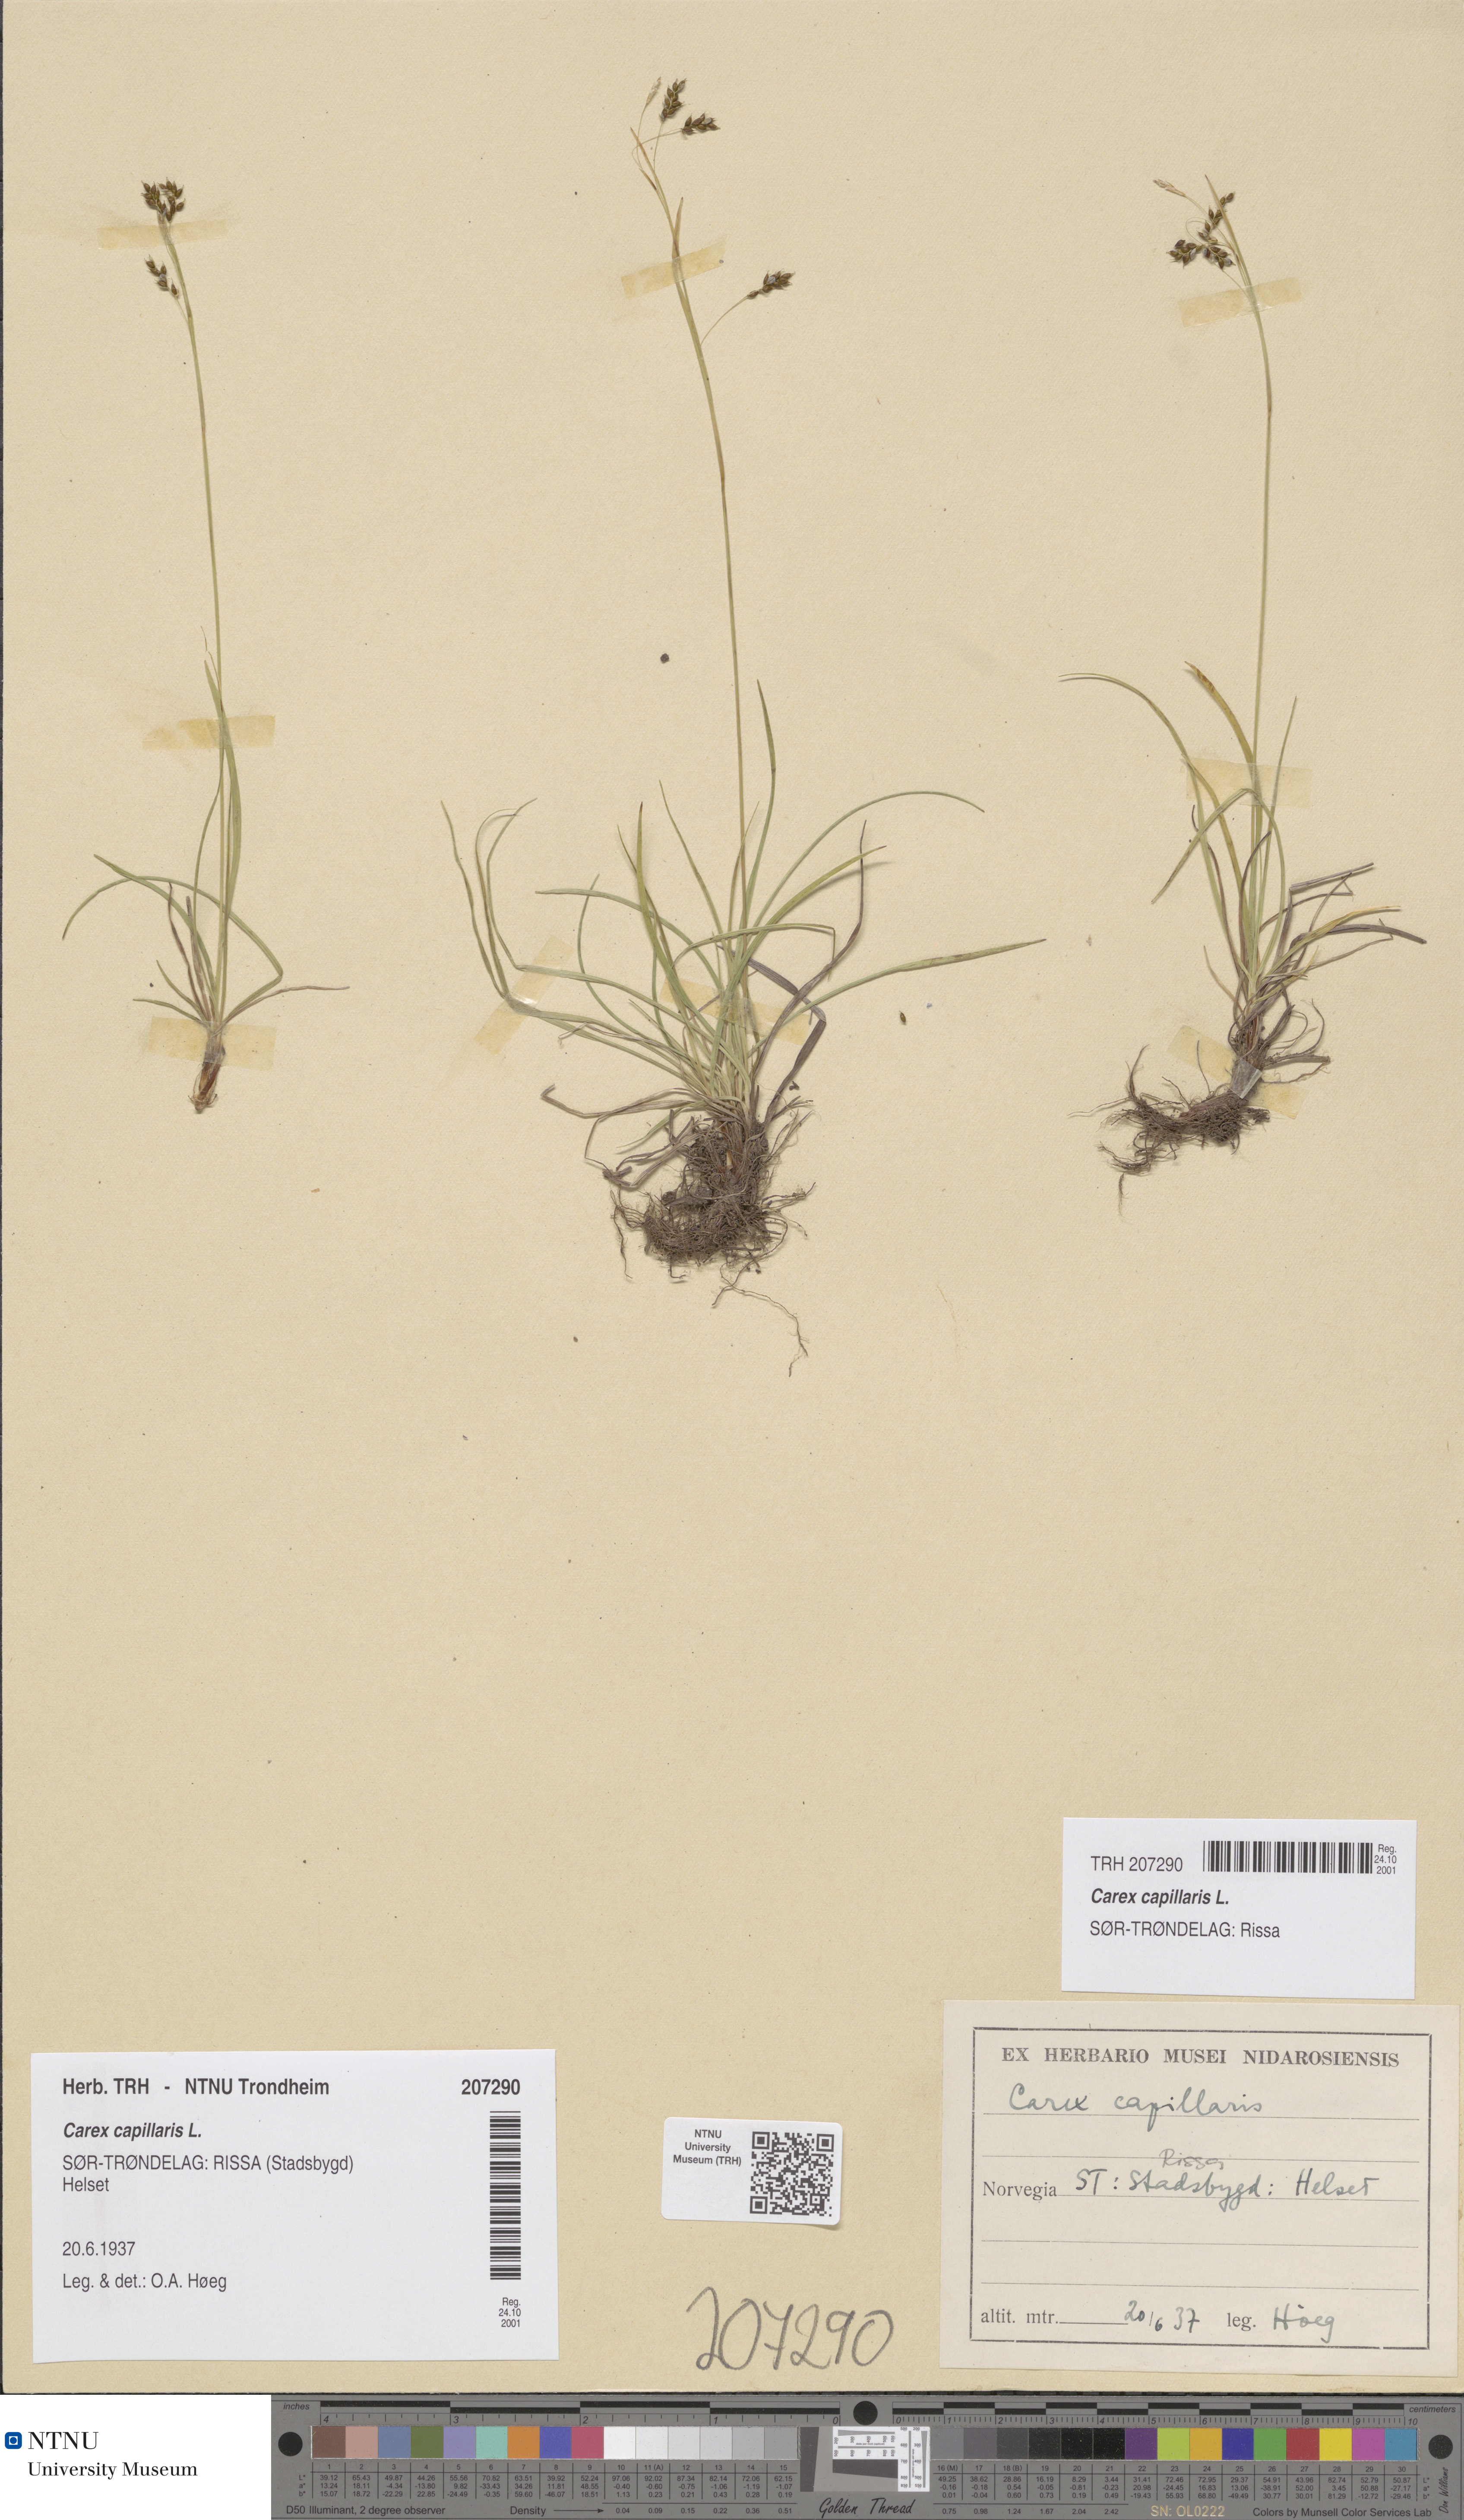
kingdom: Plantae
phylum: Tracheophyta
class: Liliopsida
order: Poales
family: Cyperaceae
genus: Carex
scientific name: Carex capillaris
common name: Hair sedge
